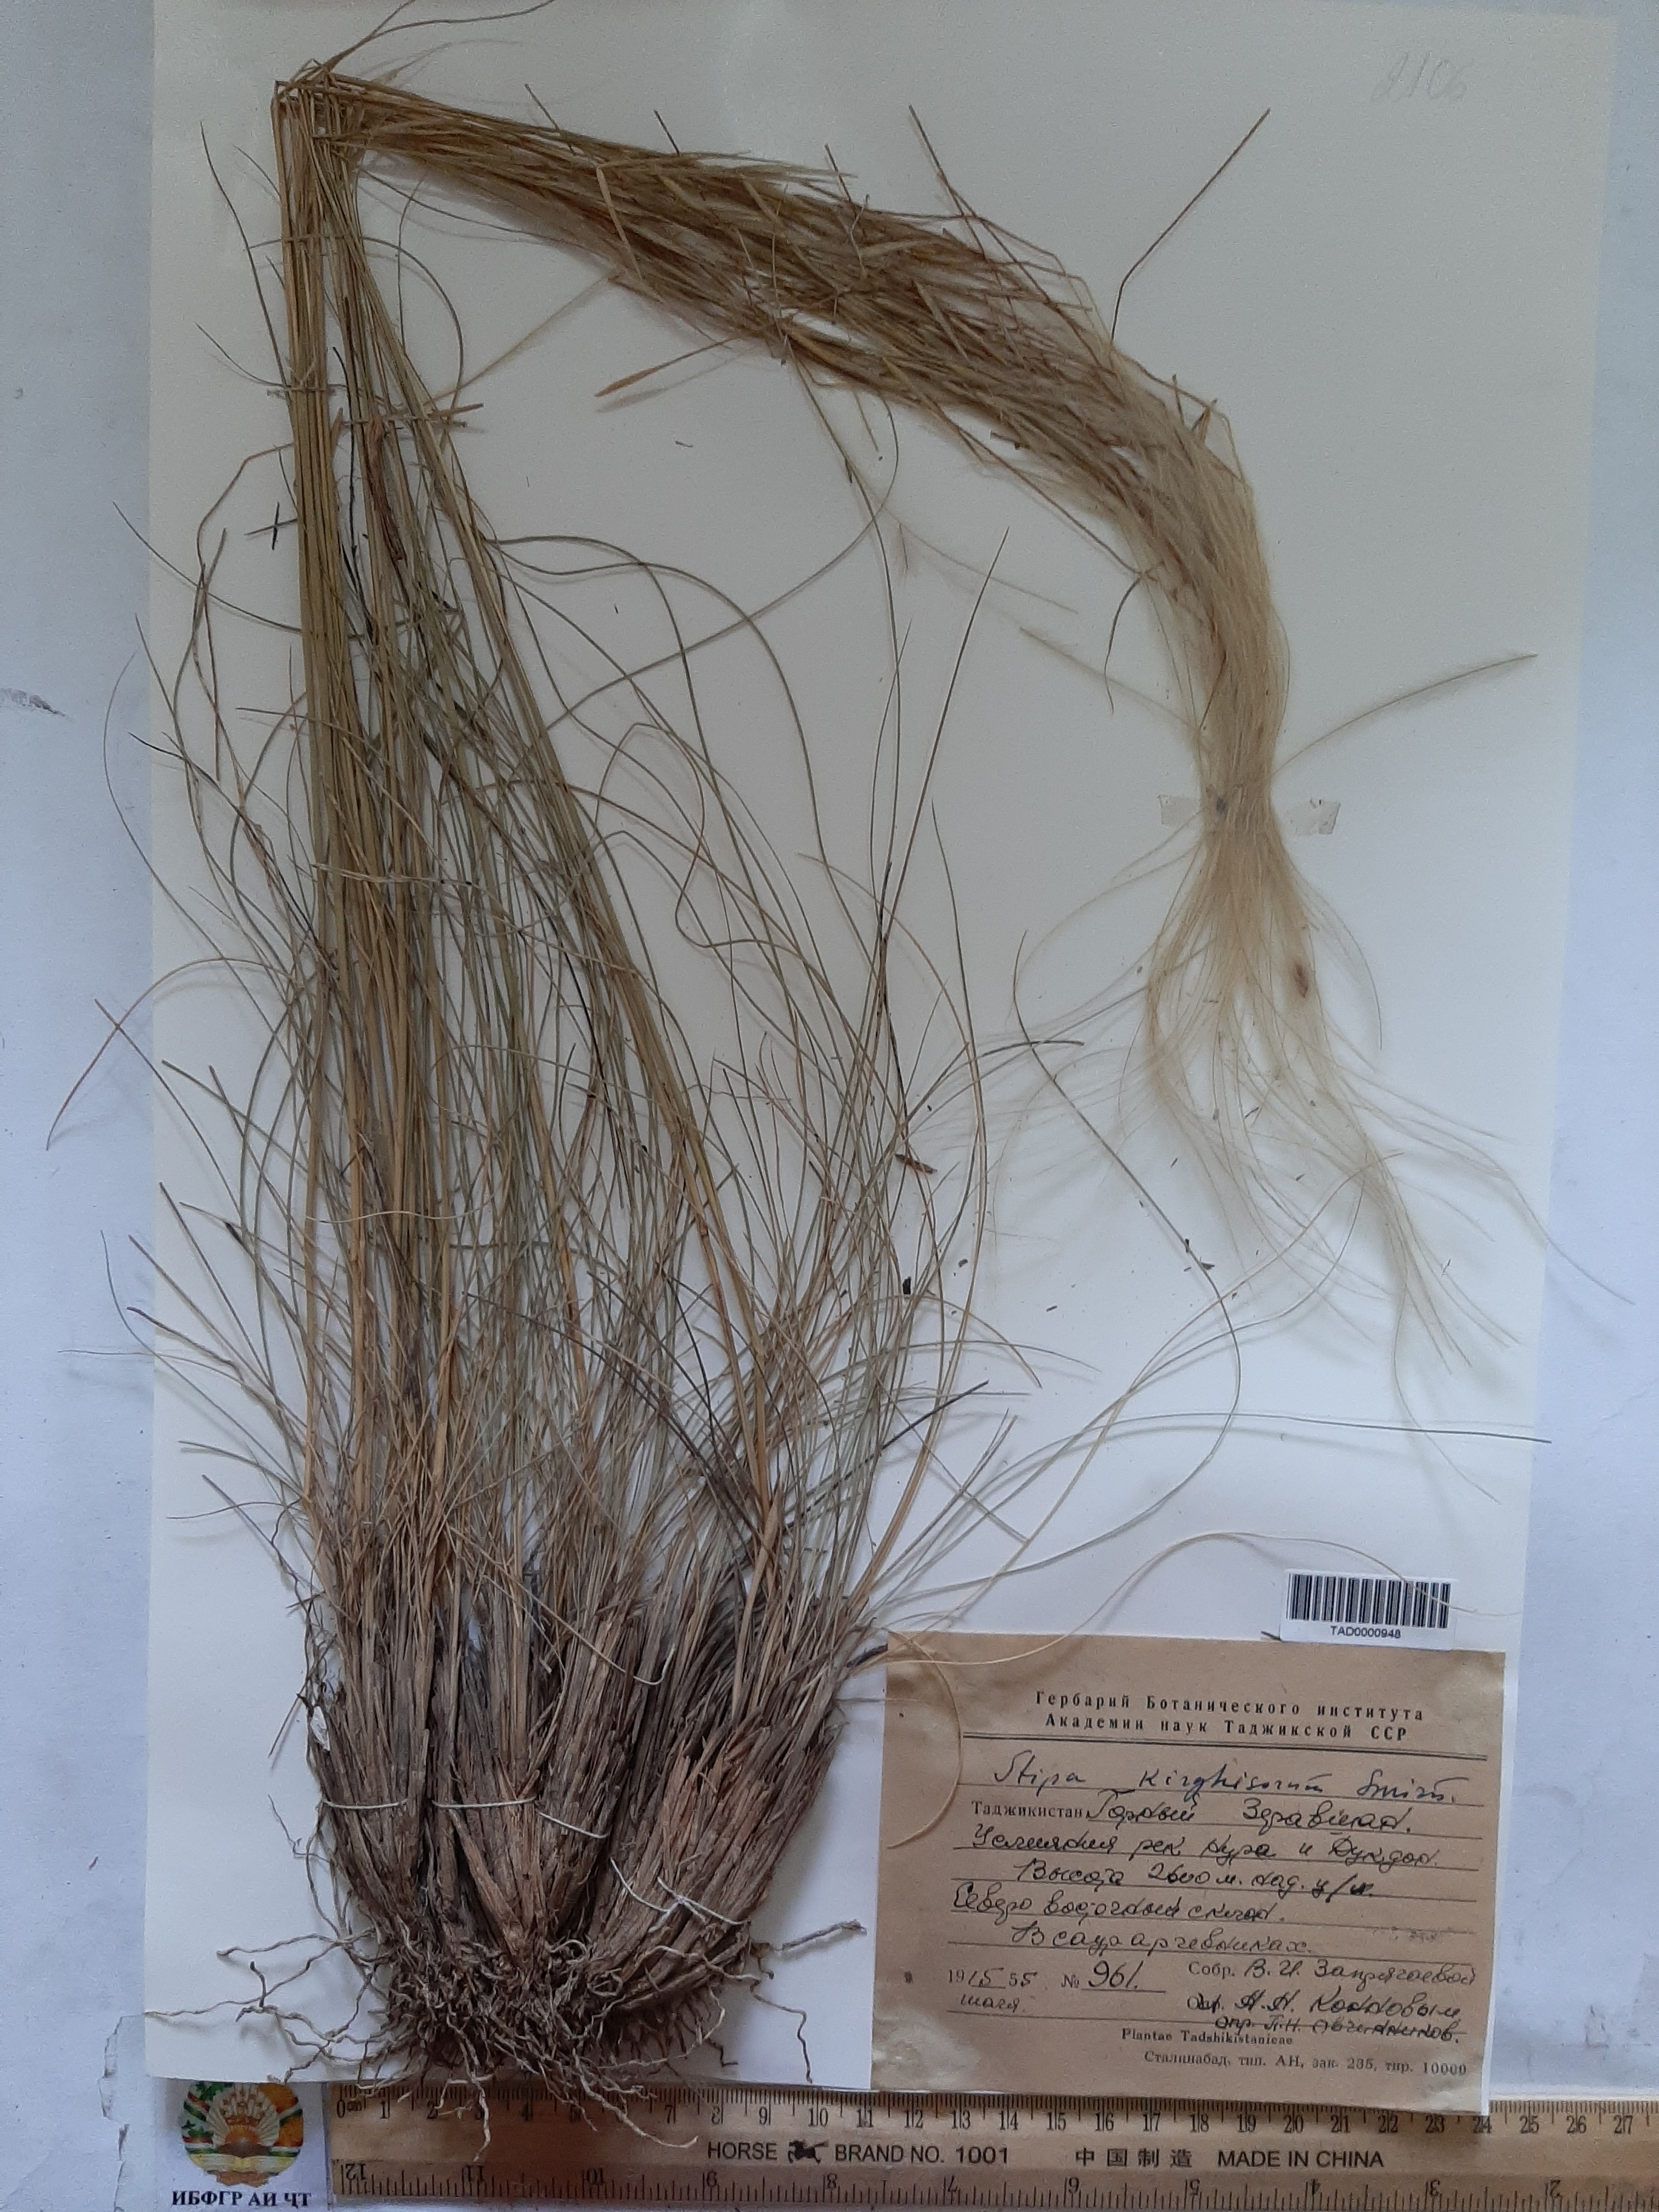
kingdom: Plantae
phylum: Tracheophyta
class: Liliopsida
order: Poales
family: Poaceae
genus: Stipa
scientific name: Stipa kirghisorum
